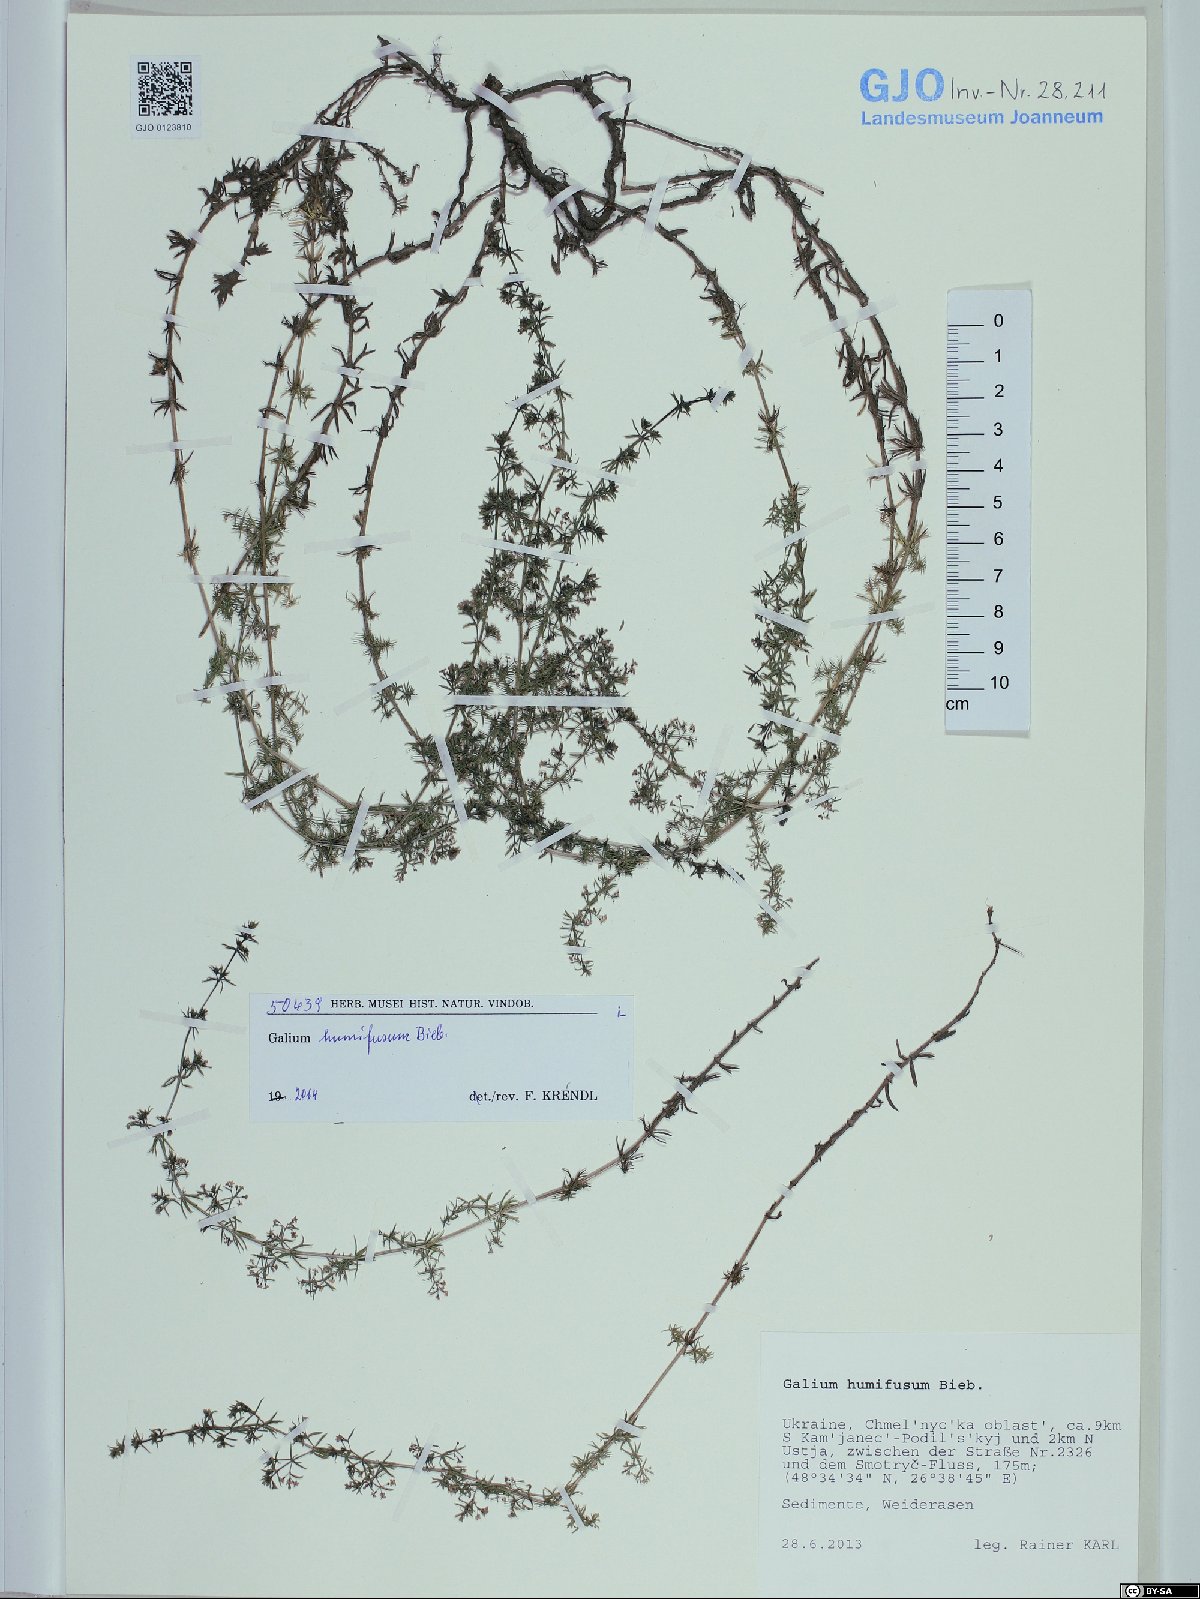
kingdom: Plantae
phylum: Tracheophyta
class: Magnoliopsida
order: Gentianales
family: Rubiaceae
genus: Galium
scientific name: Galium humifusum
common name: Spreading bedstraw
